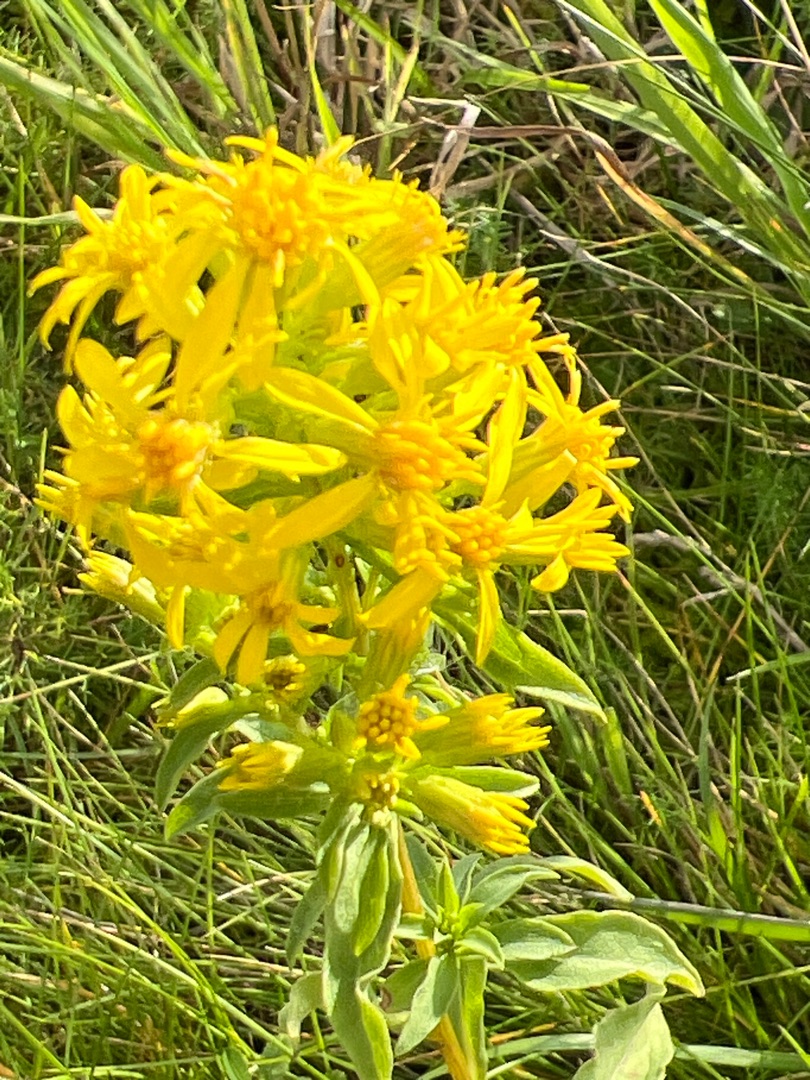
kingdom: Plantae
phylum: Tracheophyta
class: Magnoliopsida
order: Asterales
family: Asteraceae
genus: Solidago
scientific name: Solidago virgaurea
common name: Almindelig gyldenris
